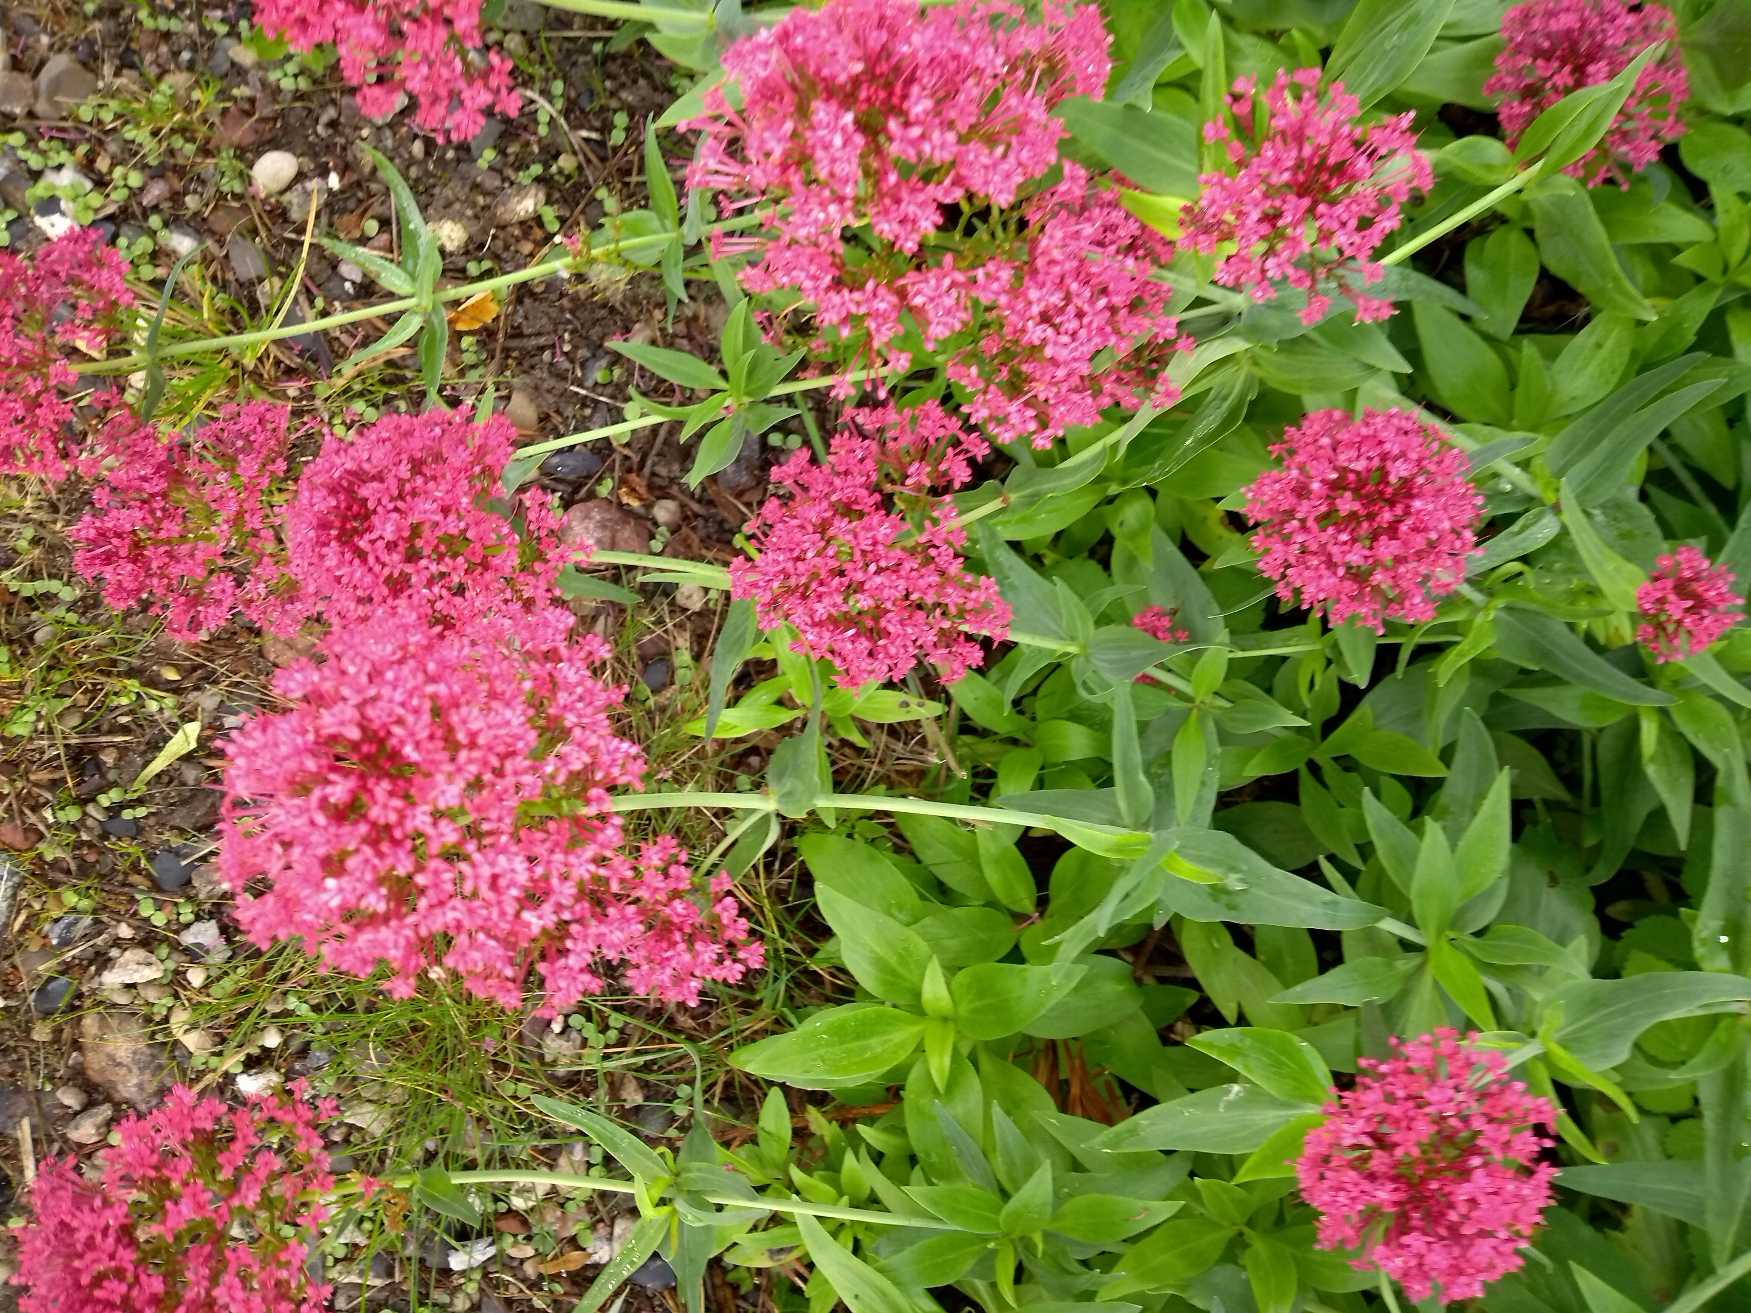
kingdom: Plantae
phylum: Tracheophyta
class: Magnoliopsida
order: Dipsacales
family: Caprifoliaceae
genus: Centranthus
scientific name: Centranthus ruber
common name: Sporebaldrian
